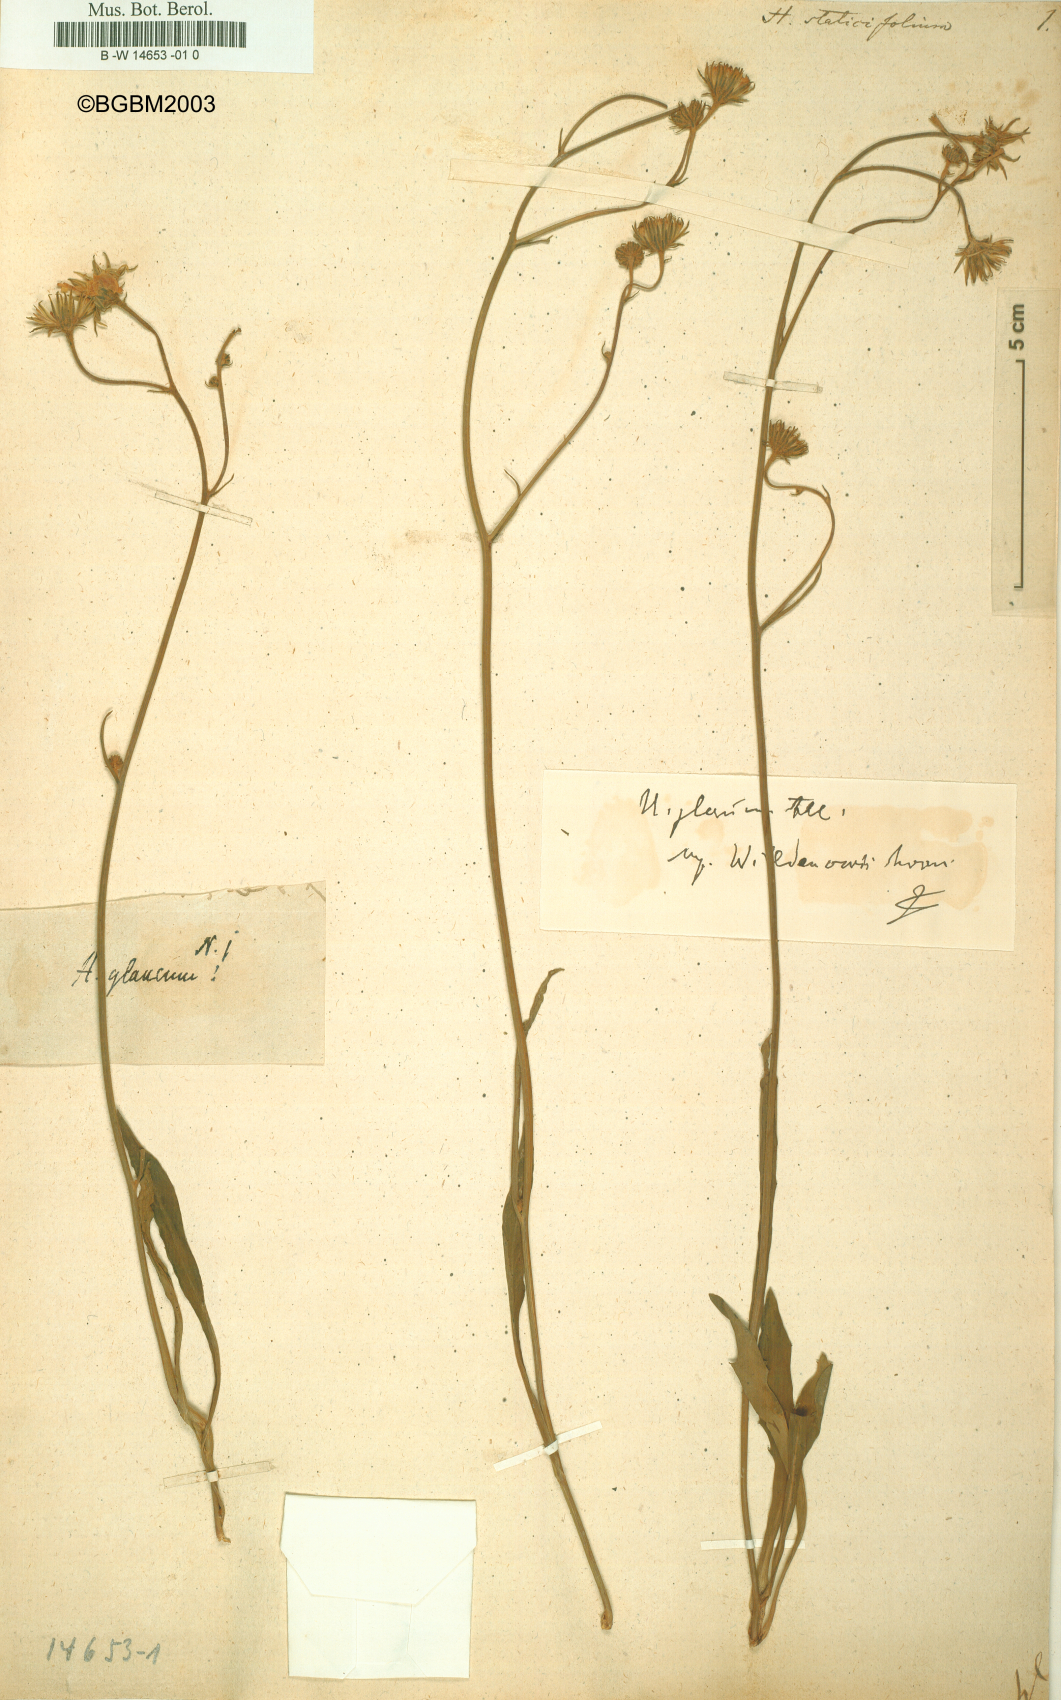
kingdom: Plantae
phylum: Tracheophyta
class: Magnoliopsida
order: Asterales
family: Asteraceae
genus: Hieracium
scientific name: Hieracium staticifolium
